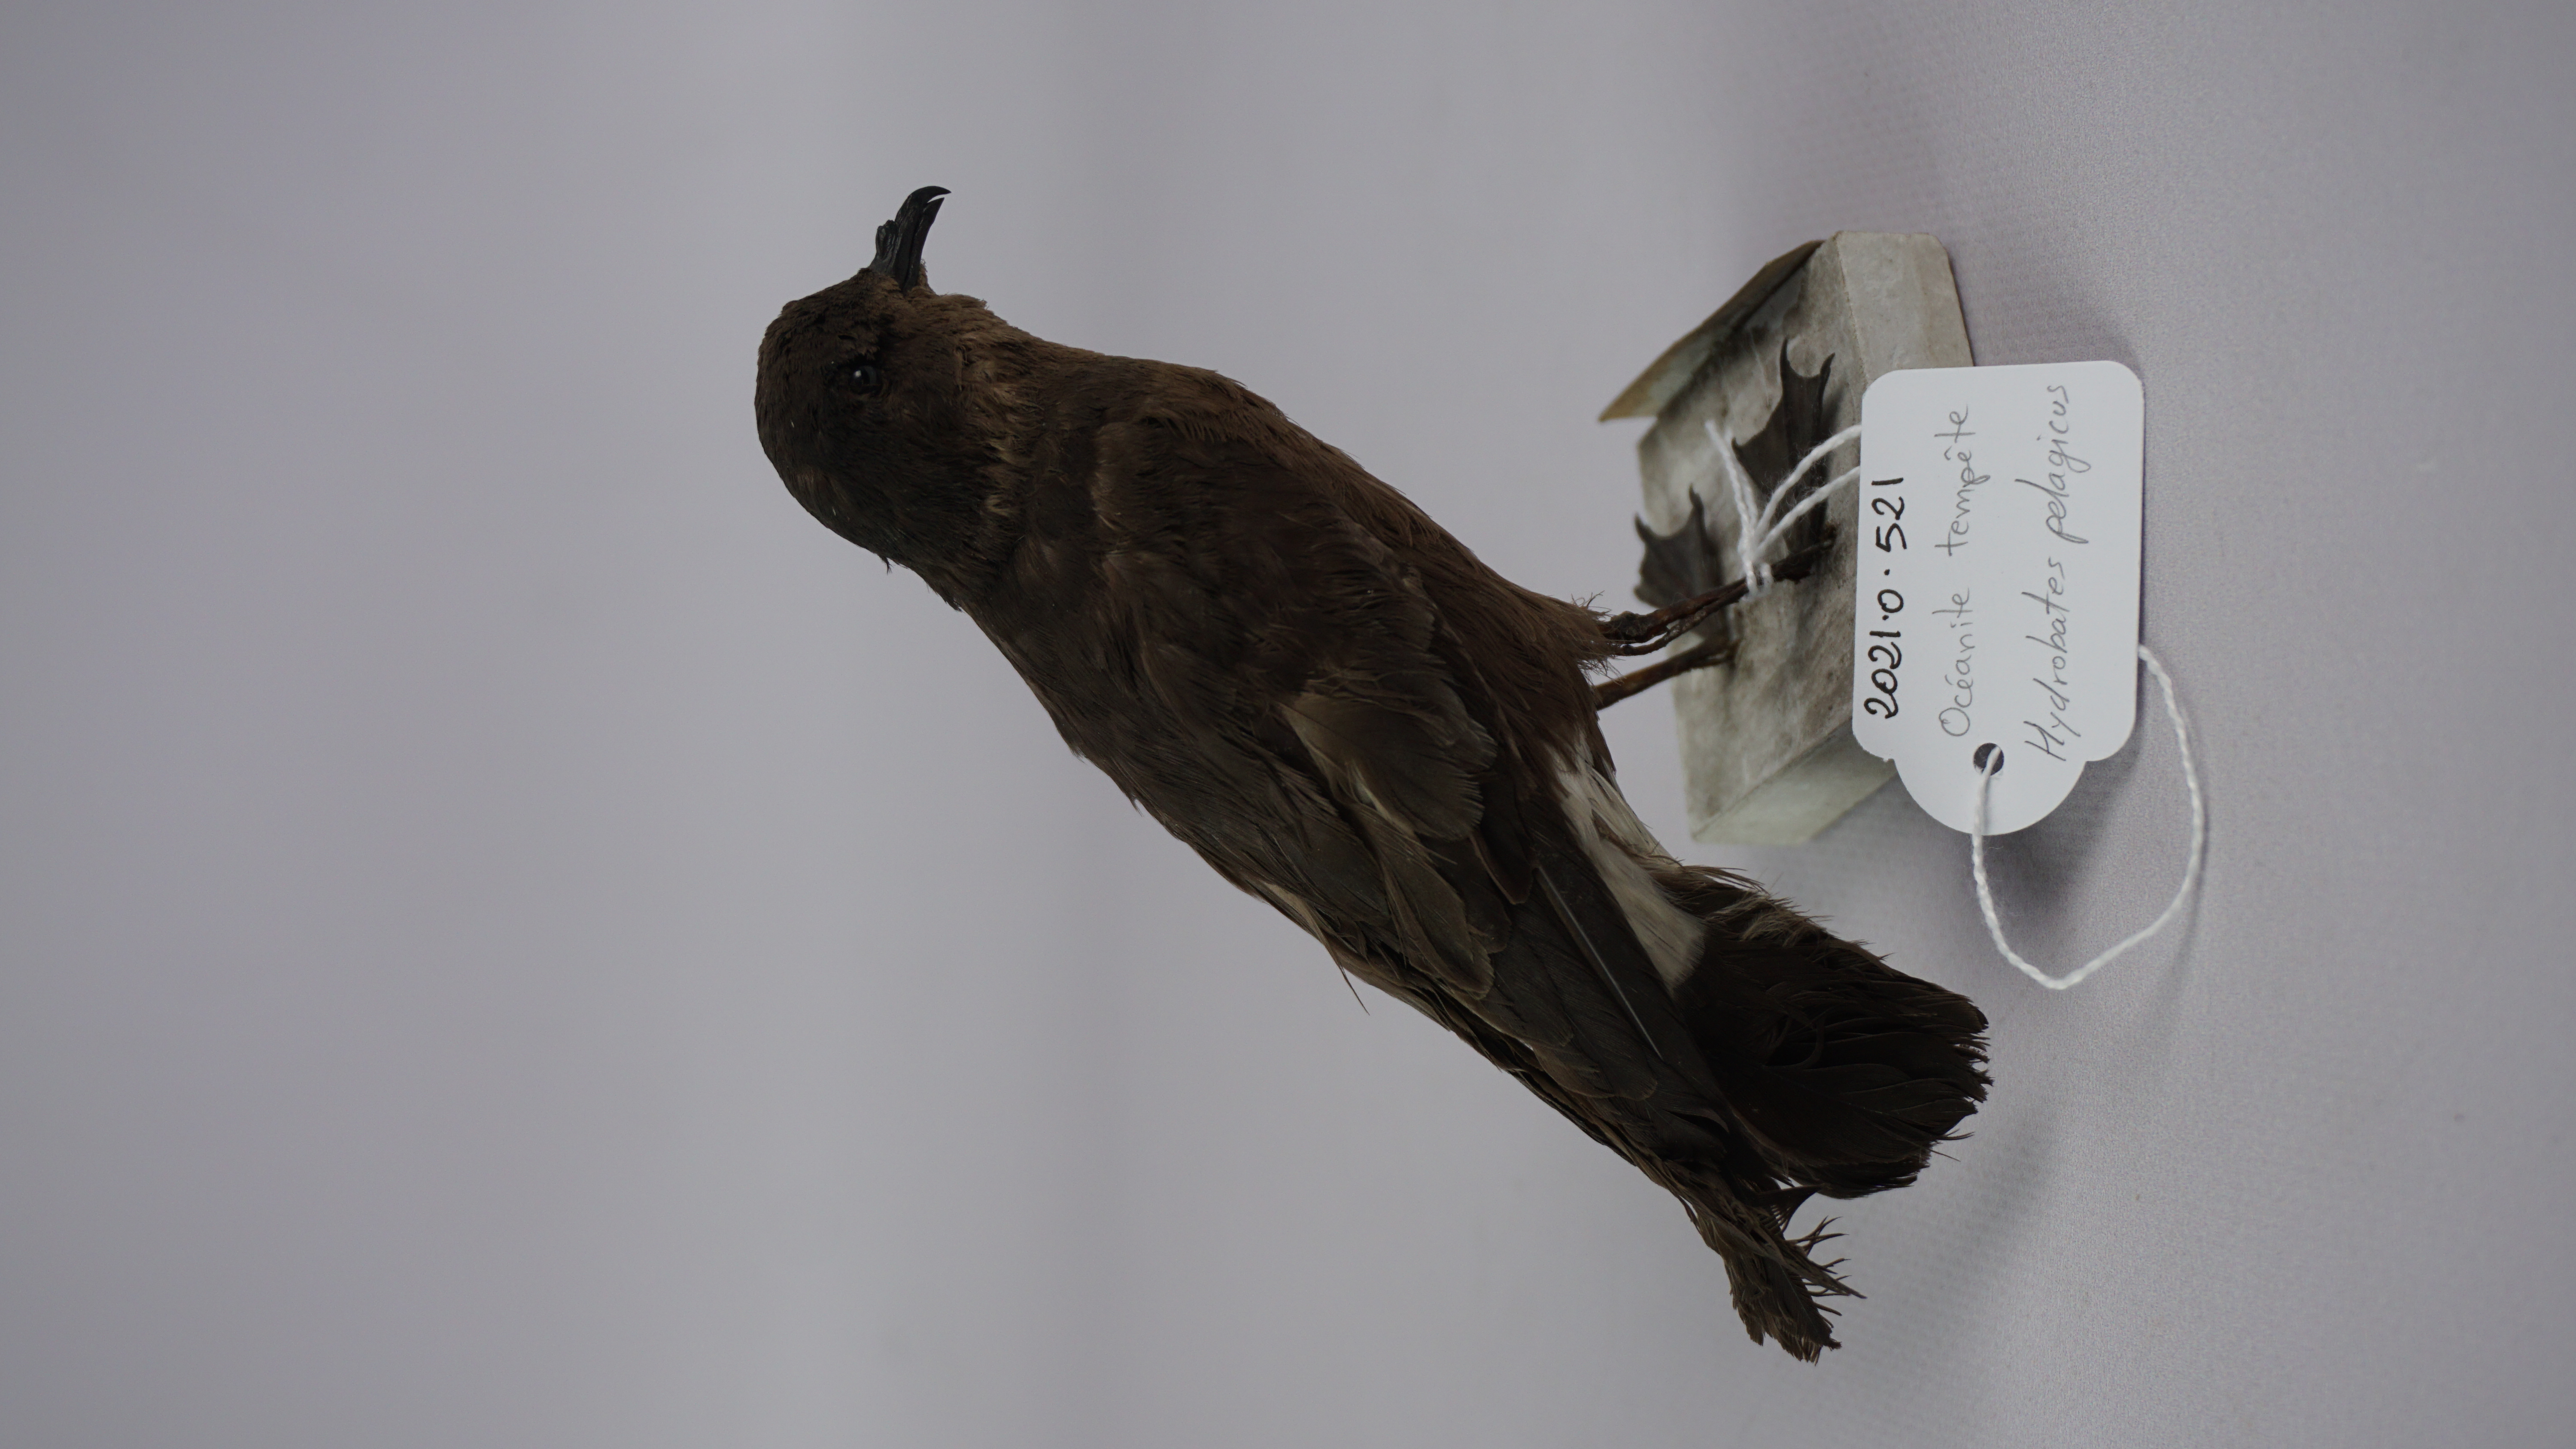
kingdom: Animalia
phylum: Chordata
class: Aves
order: Procellariiformes
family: Hydrobatidae
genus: Hydrobates
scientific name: Hydrobates pelagicus
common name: European storm-petrel
